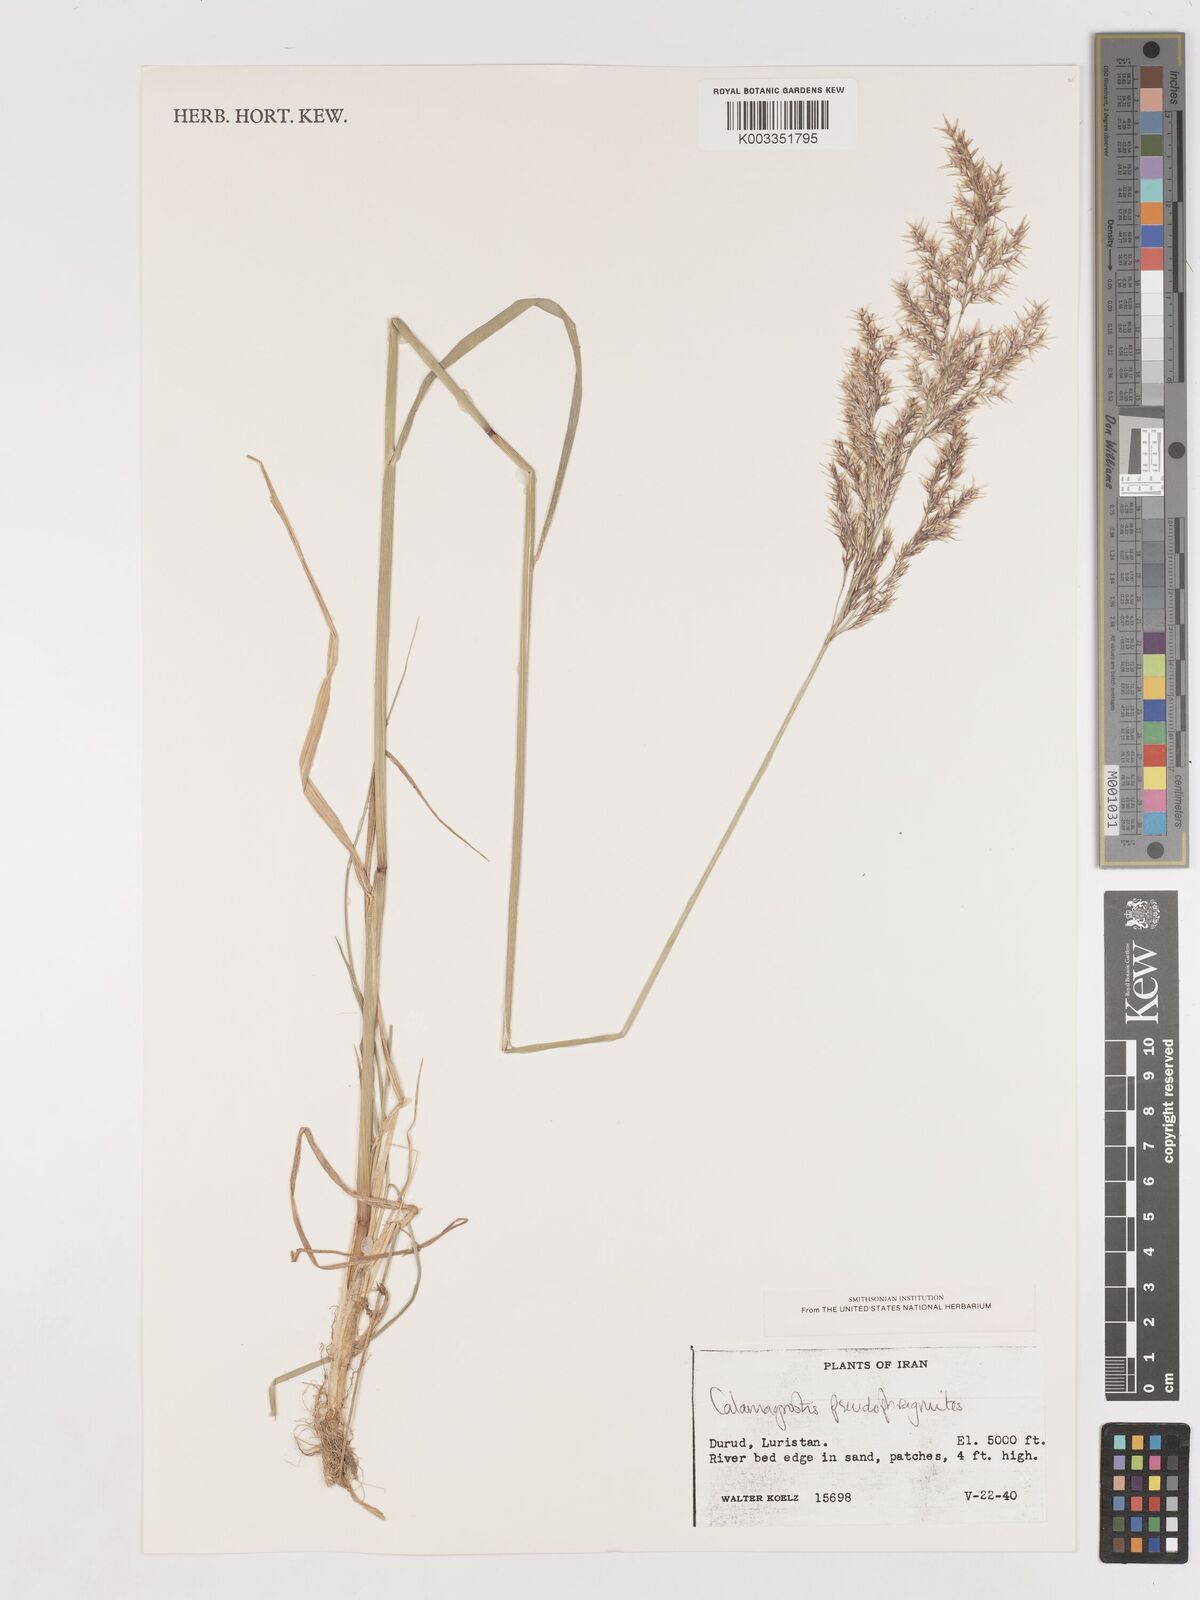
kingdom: Plantae
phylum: Tracheophyta
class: Liliopsida
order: Poales
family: Poaceae
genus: Calamagrostis
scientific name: Calamagrostis pseudophragmites
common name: Coastal small-reed
